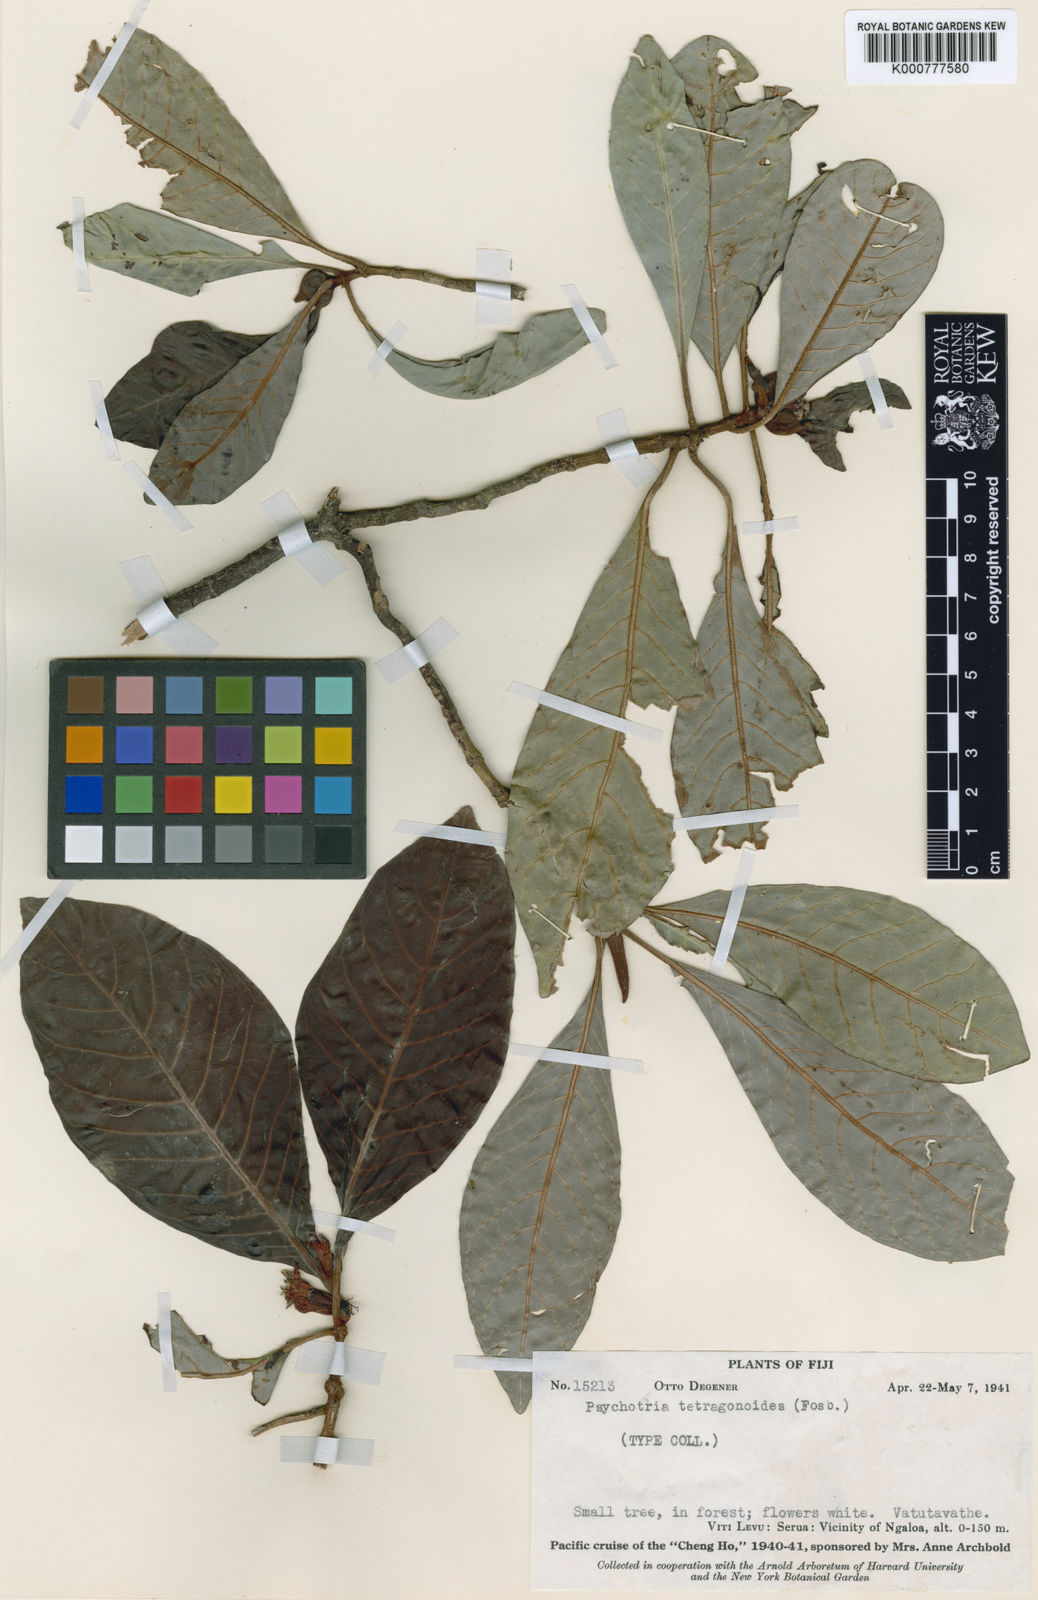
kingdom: Plantae
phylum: Tracheophyta
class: Magnoliopsida
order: Gentianales
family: Rubiaceae
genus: Psychotria
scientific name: Psychotria tetragonoides
